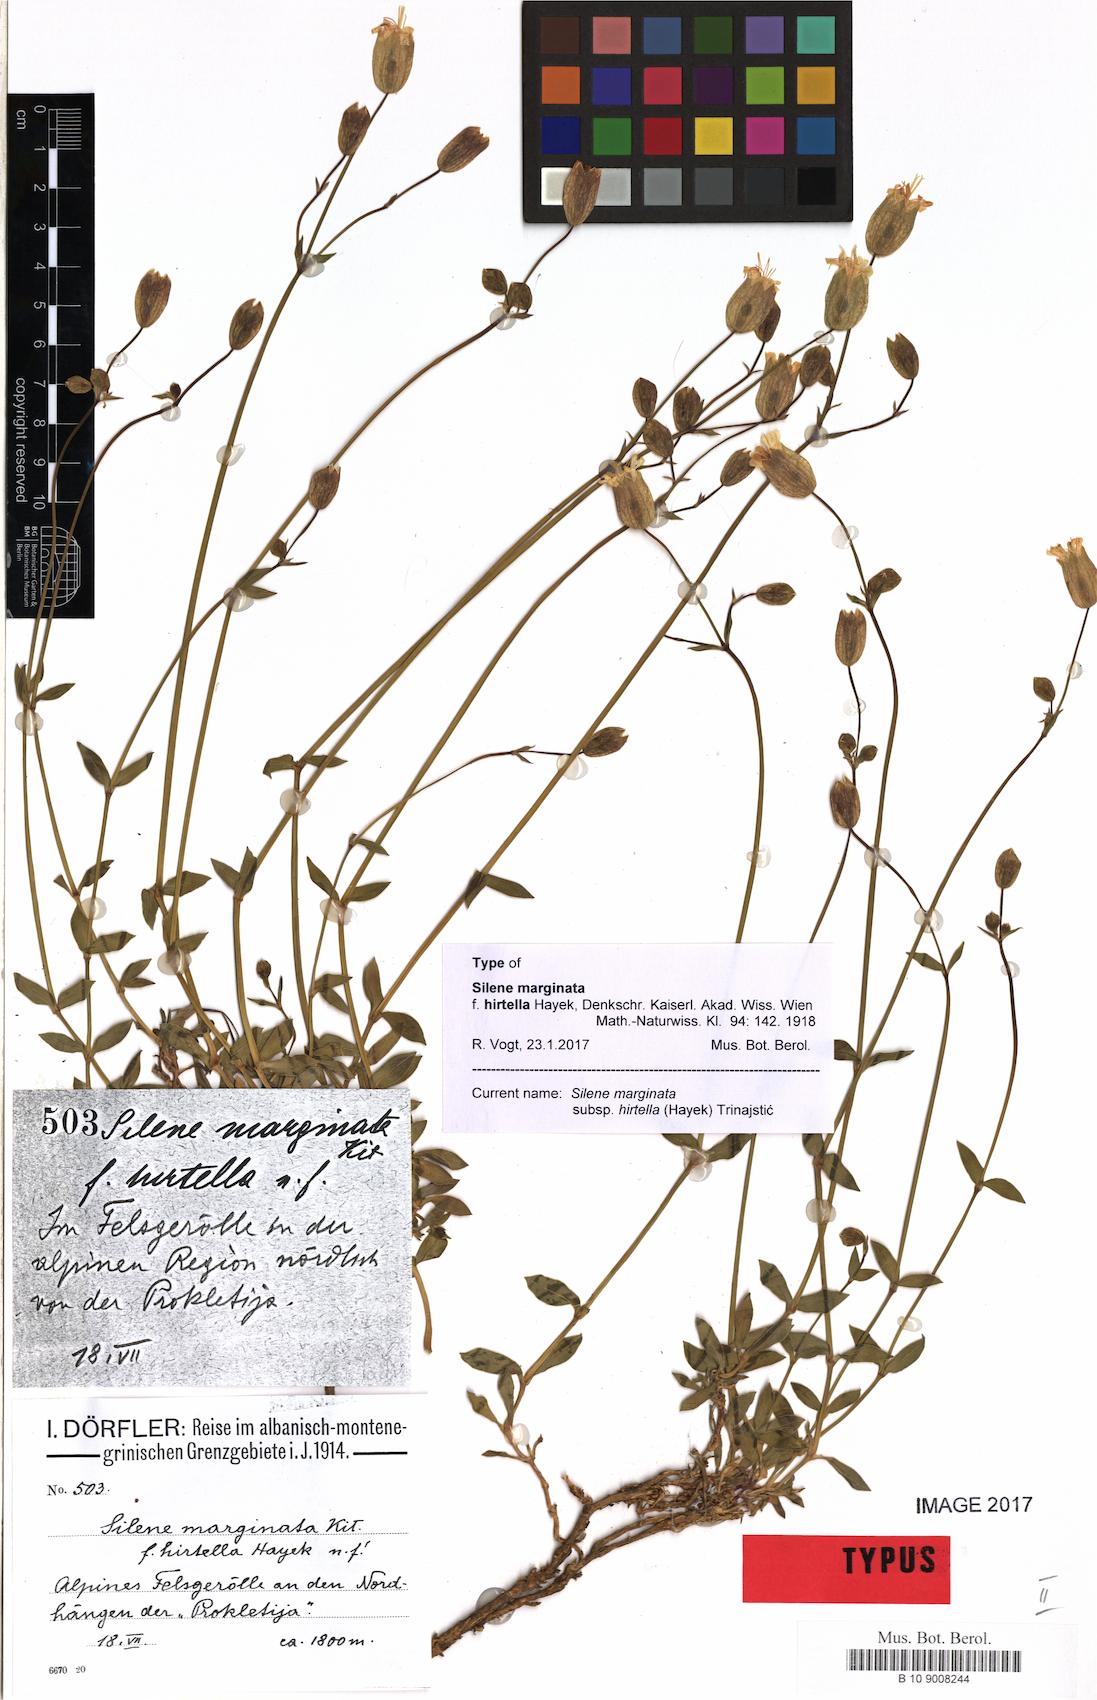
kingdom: Plantae
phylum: Tracheophyta
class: Magnoliopsida
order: Caryophyllales
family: Caryophyllaceae
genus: Silene
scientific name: Silene glareosa
